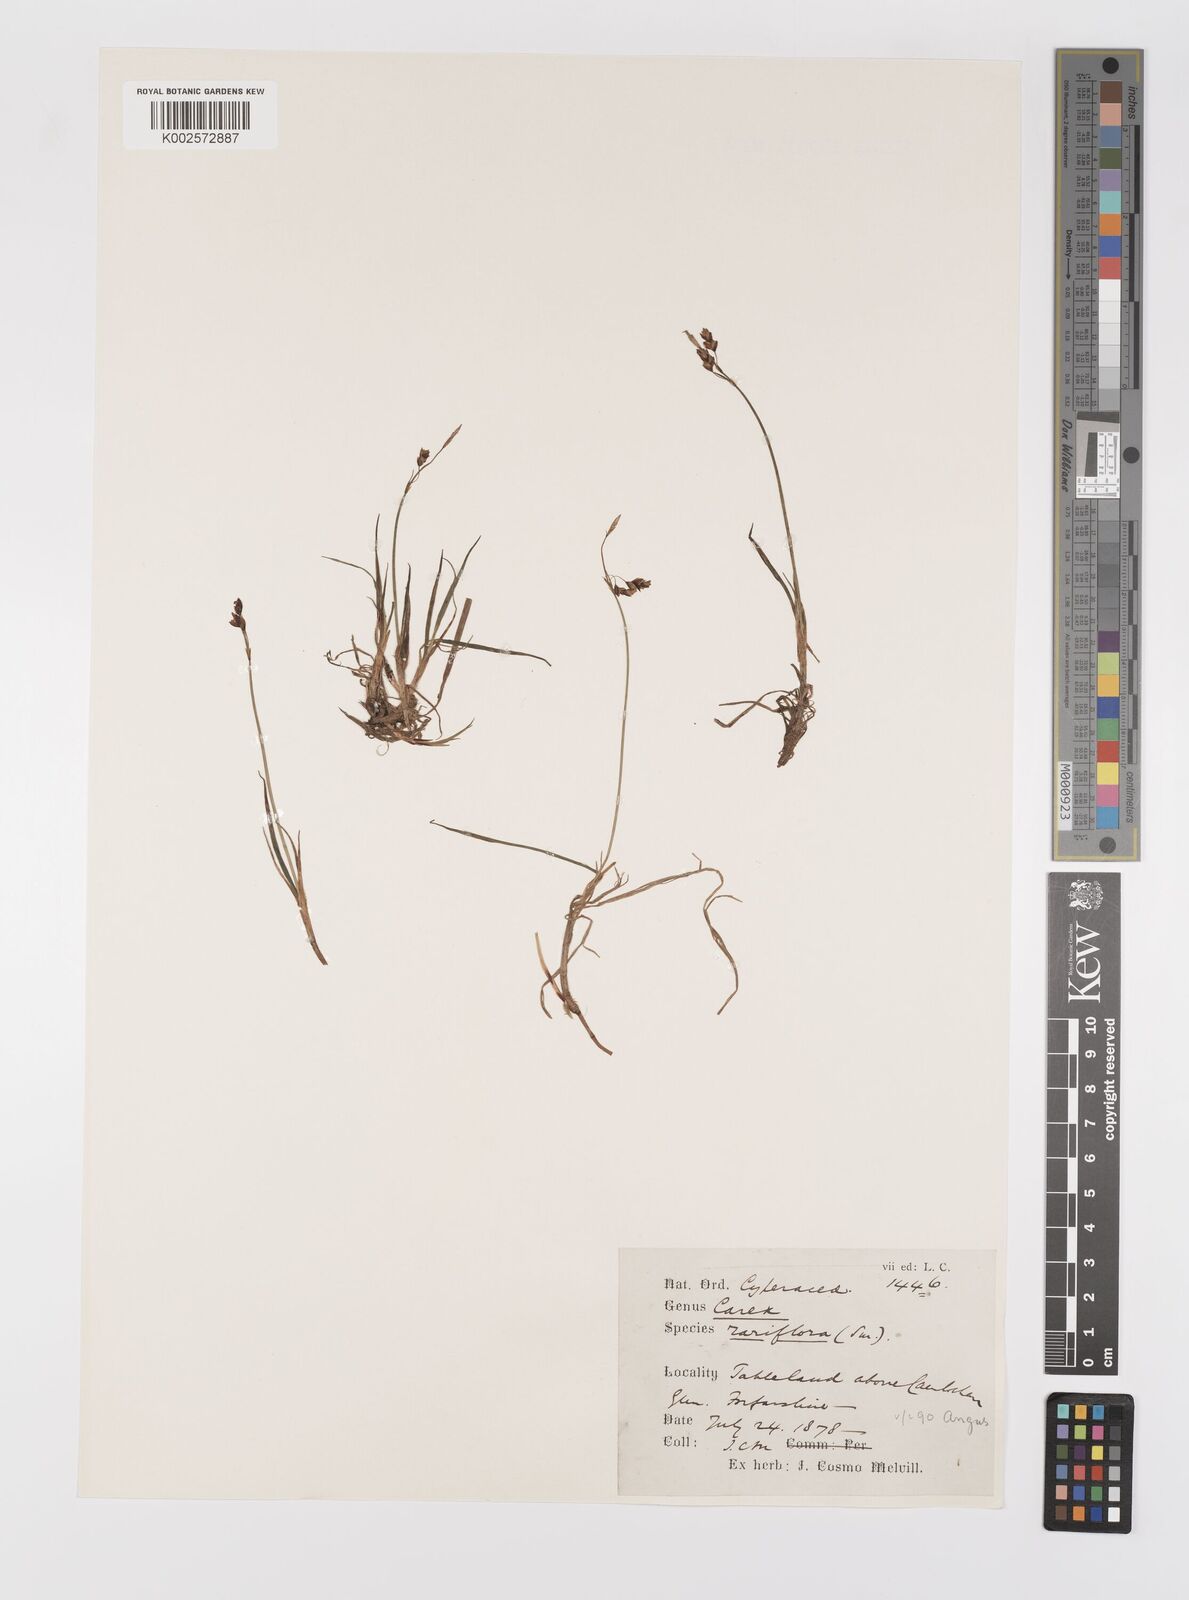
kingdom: Plantae
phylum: Tracheophyta
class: Liliopsida
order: Poales
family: Cyperaceae
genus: Carex
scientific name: Carex rariflora
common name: Loose-flowered alpine sedge
